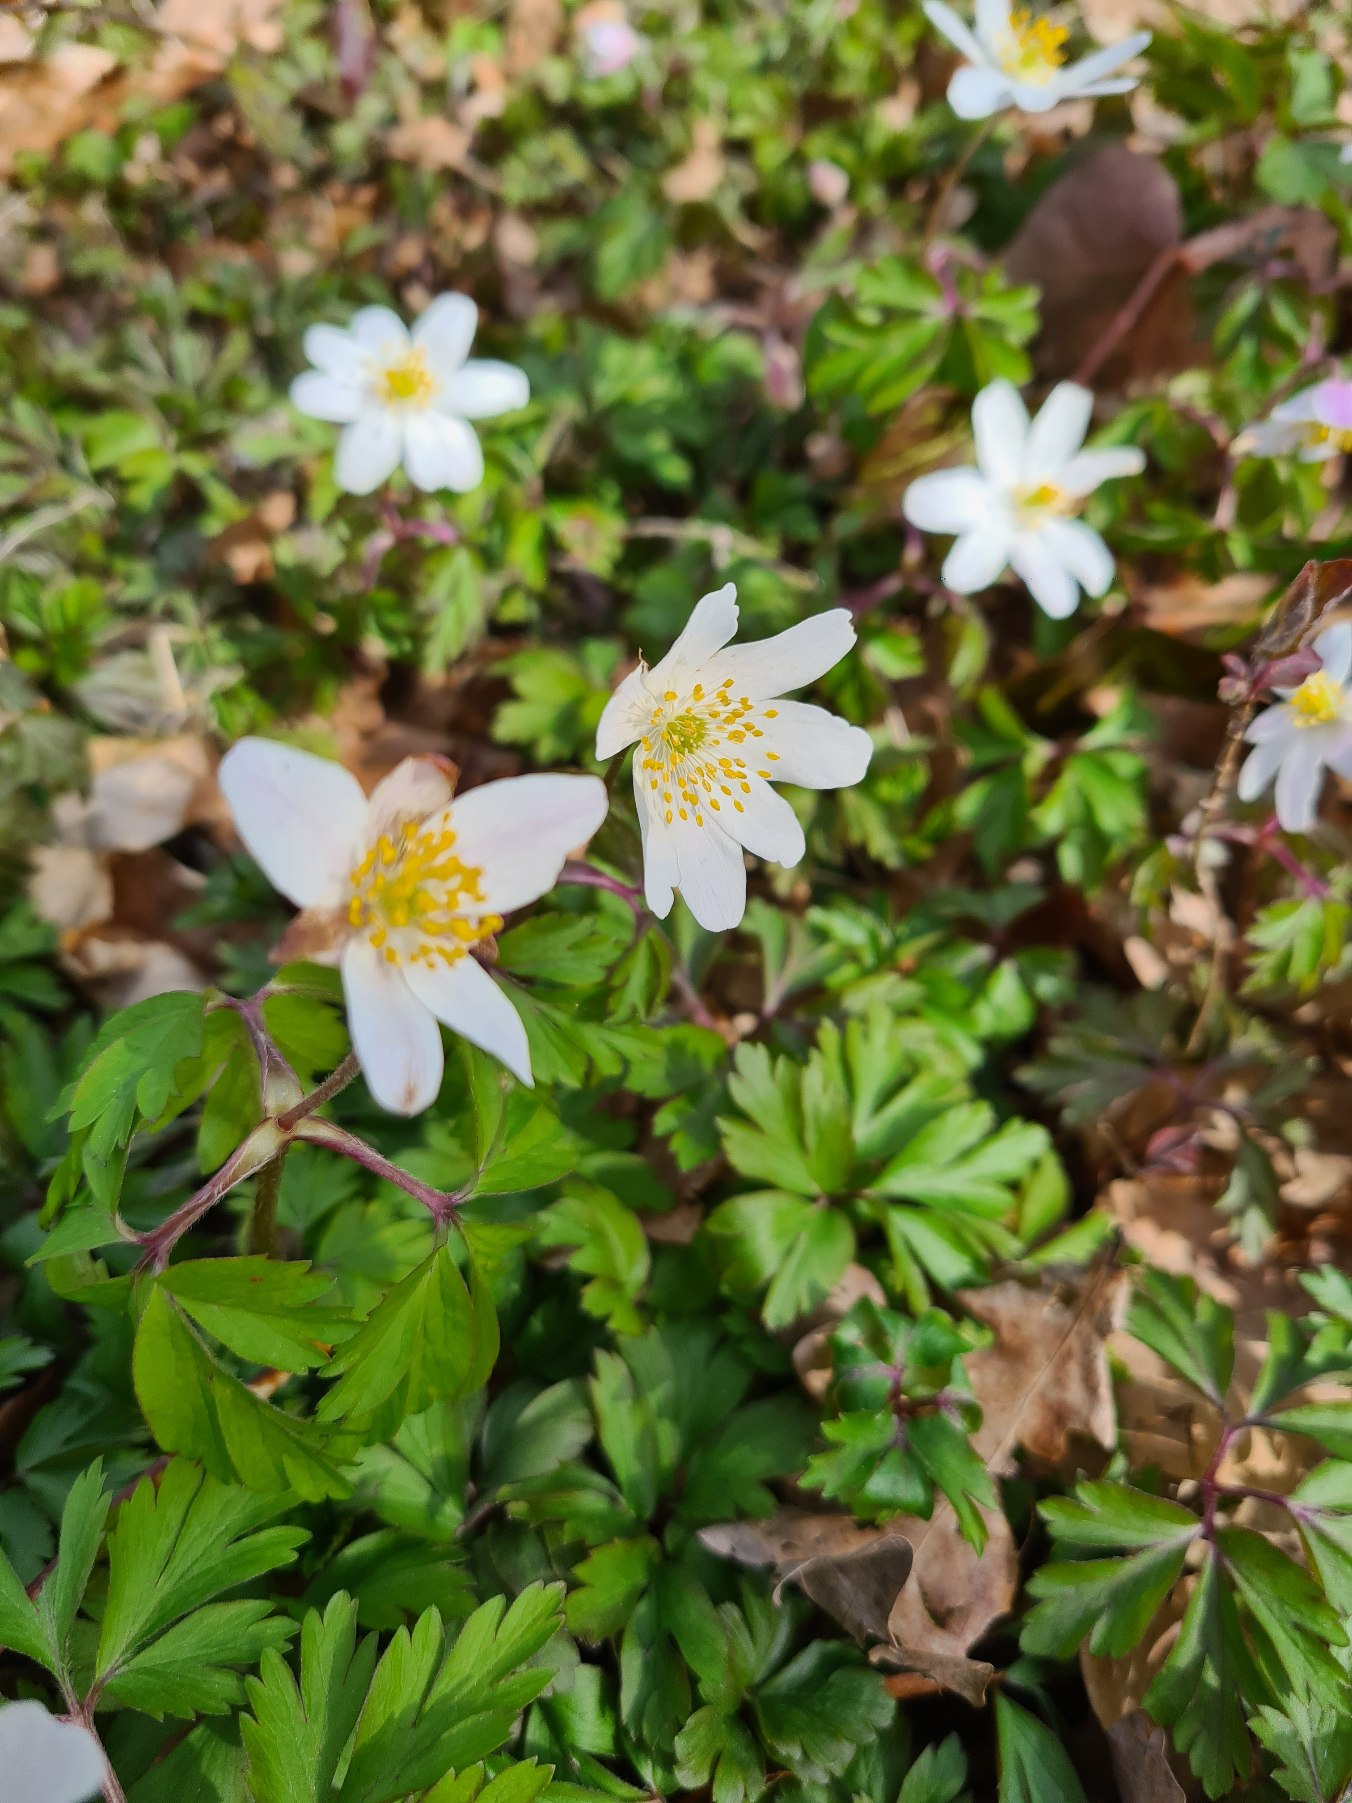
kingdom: Plantae
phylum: Tracheophyta
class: Magnoliopsida
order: Ranunculales
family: Ranunculaceae
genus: Anemone
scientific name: Anemone nemorosa
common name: Hvid anemone
